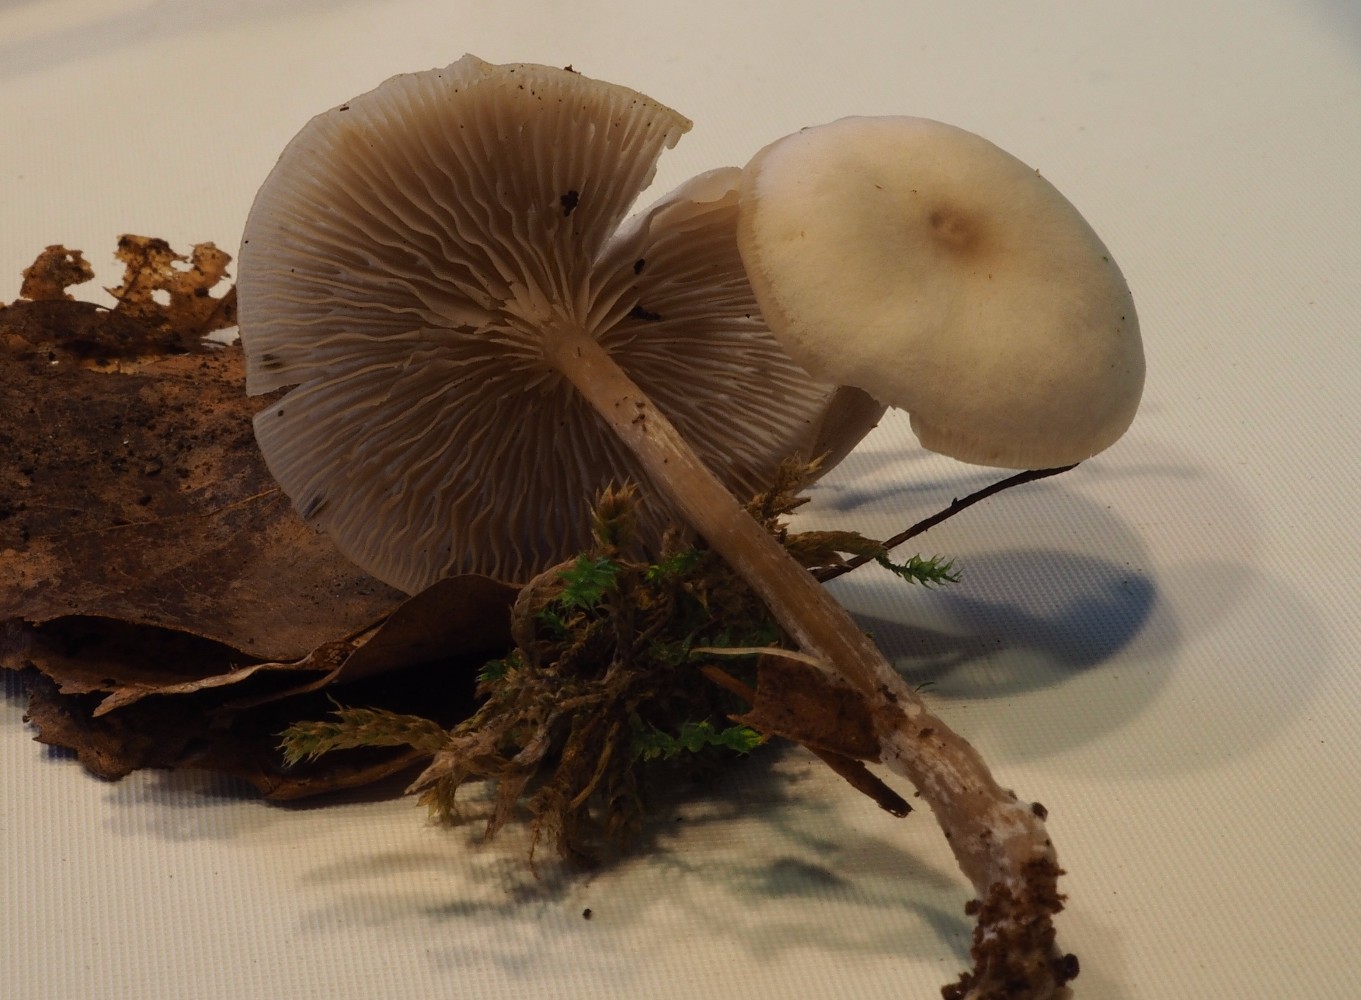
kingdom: Fungi
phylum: Basidiomycota
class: Agaricomycetes
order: Agaricales
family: Tricholomataceae
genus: Clitocybe
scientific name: Clitocybe metachroa
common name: grå tragthat
